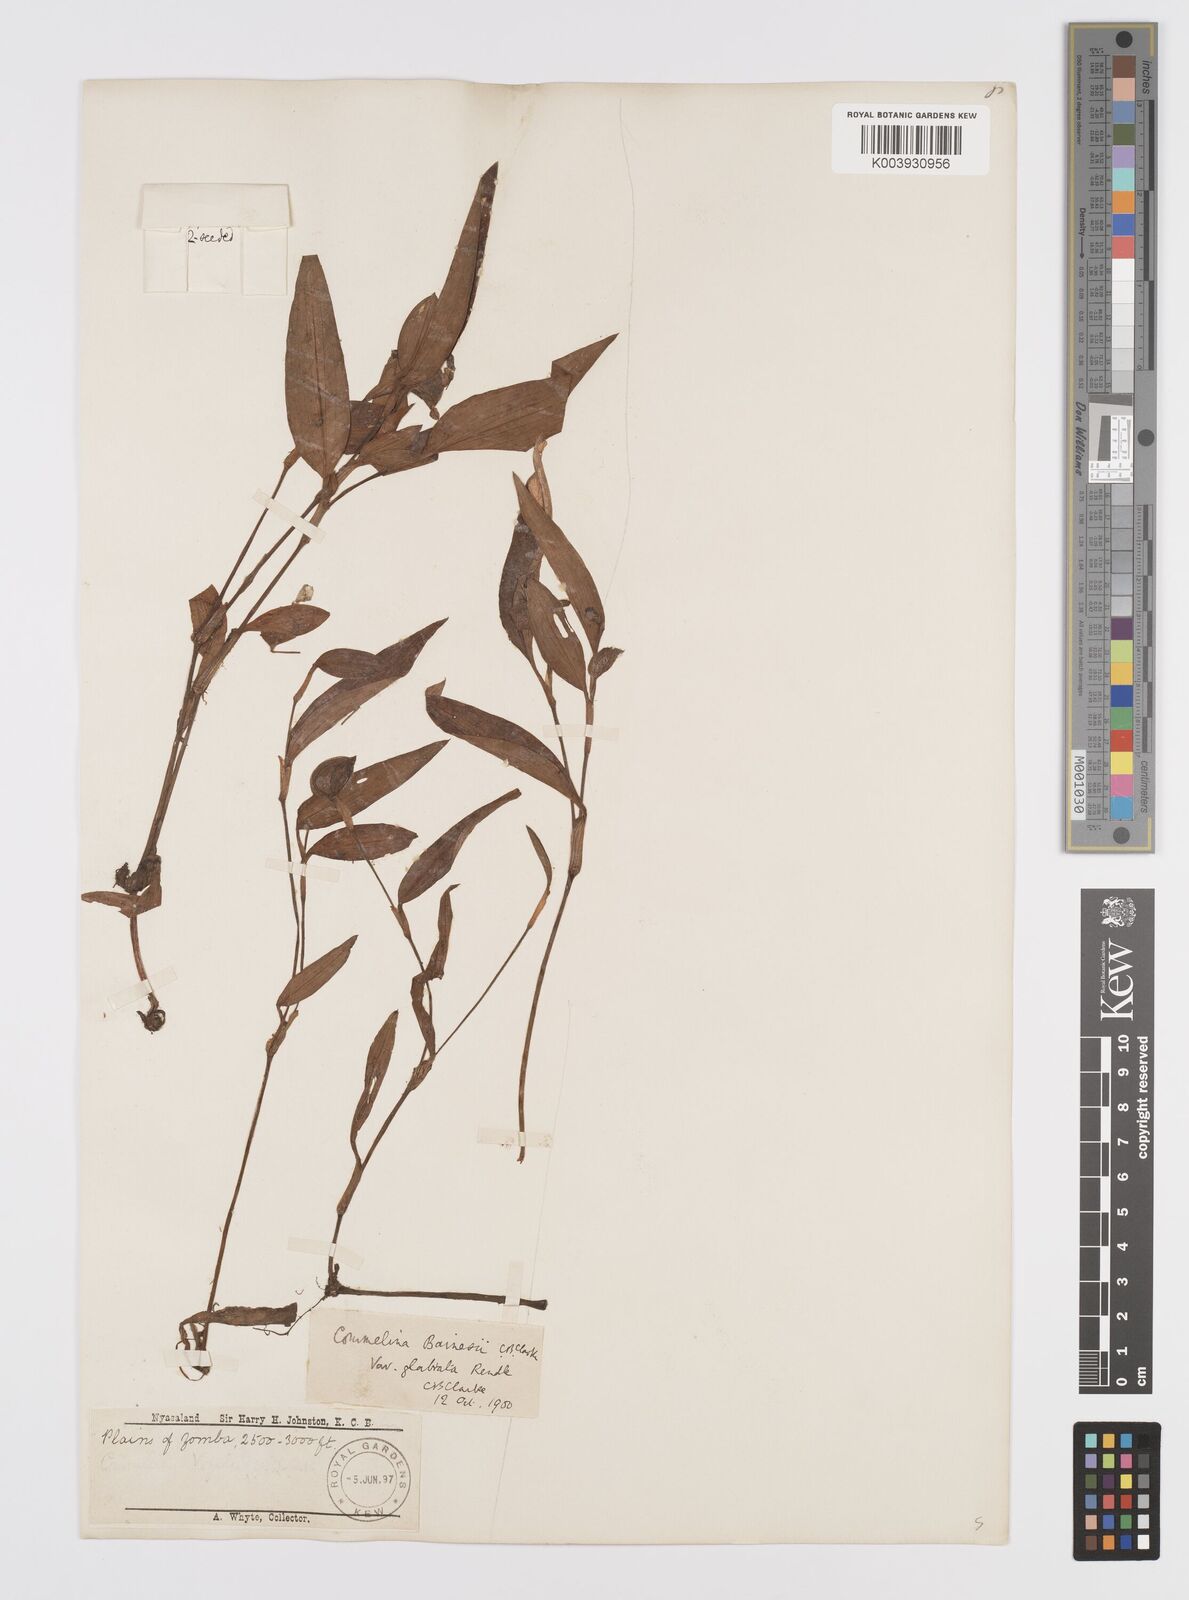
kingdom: Plantae
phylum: Tracheophyta
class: Liliopsida
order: Commelinales
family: Commelinaceae
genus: Commelina
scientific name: Commelina bracteosa
